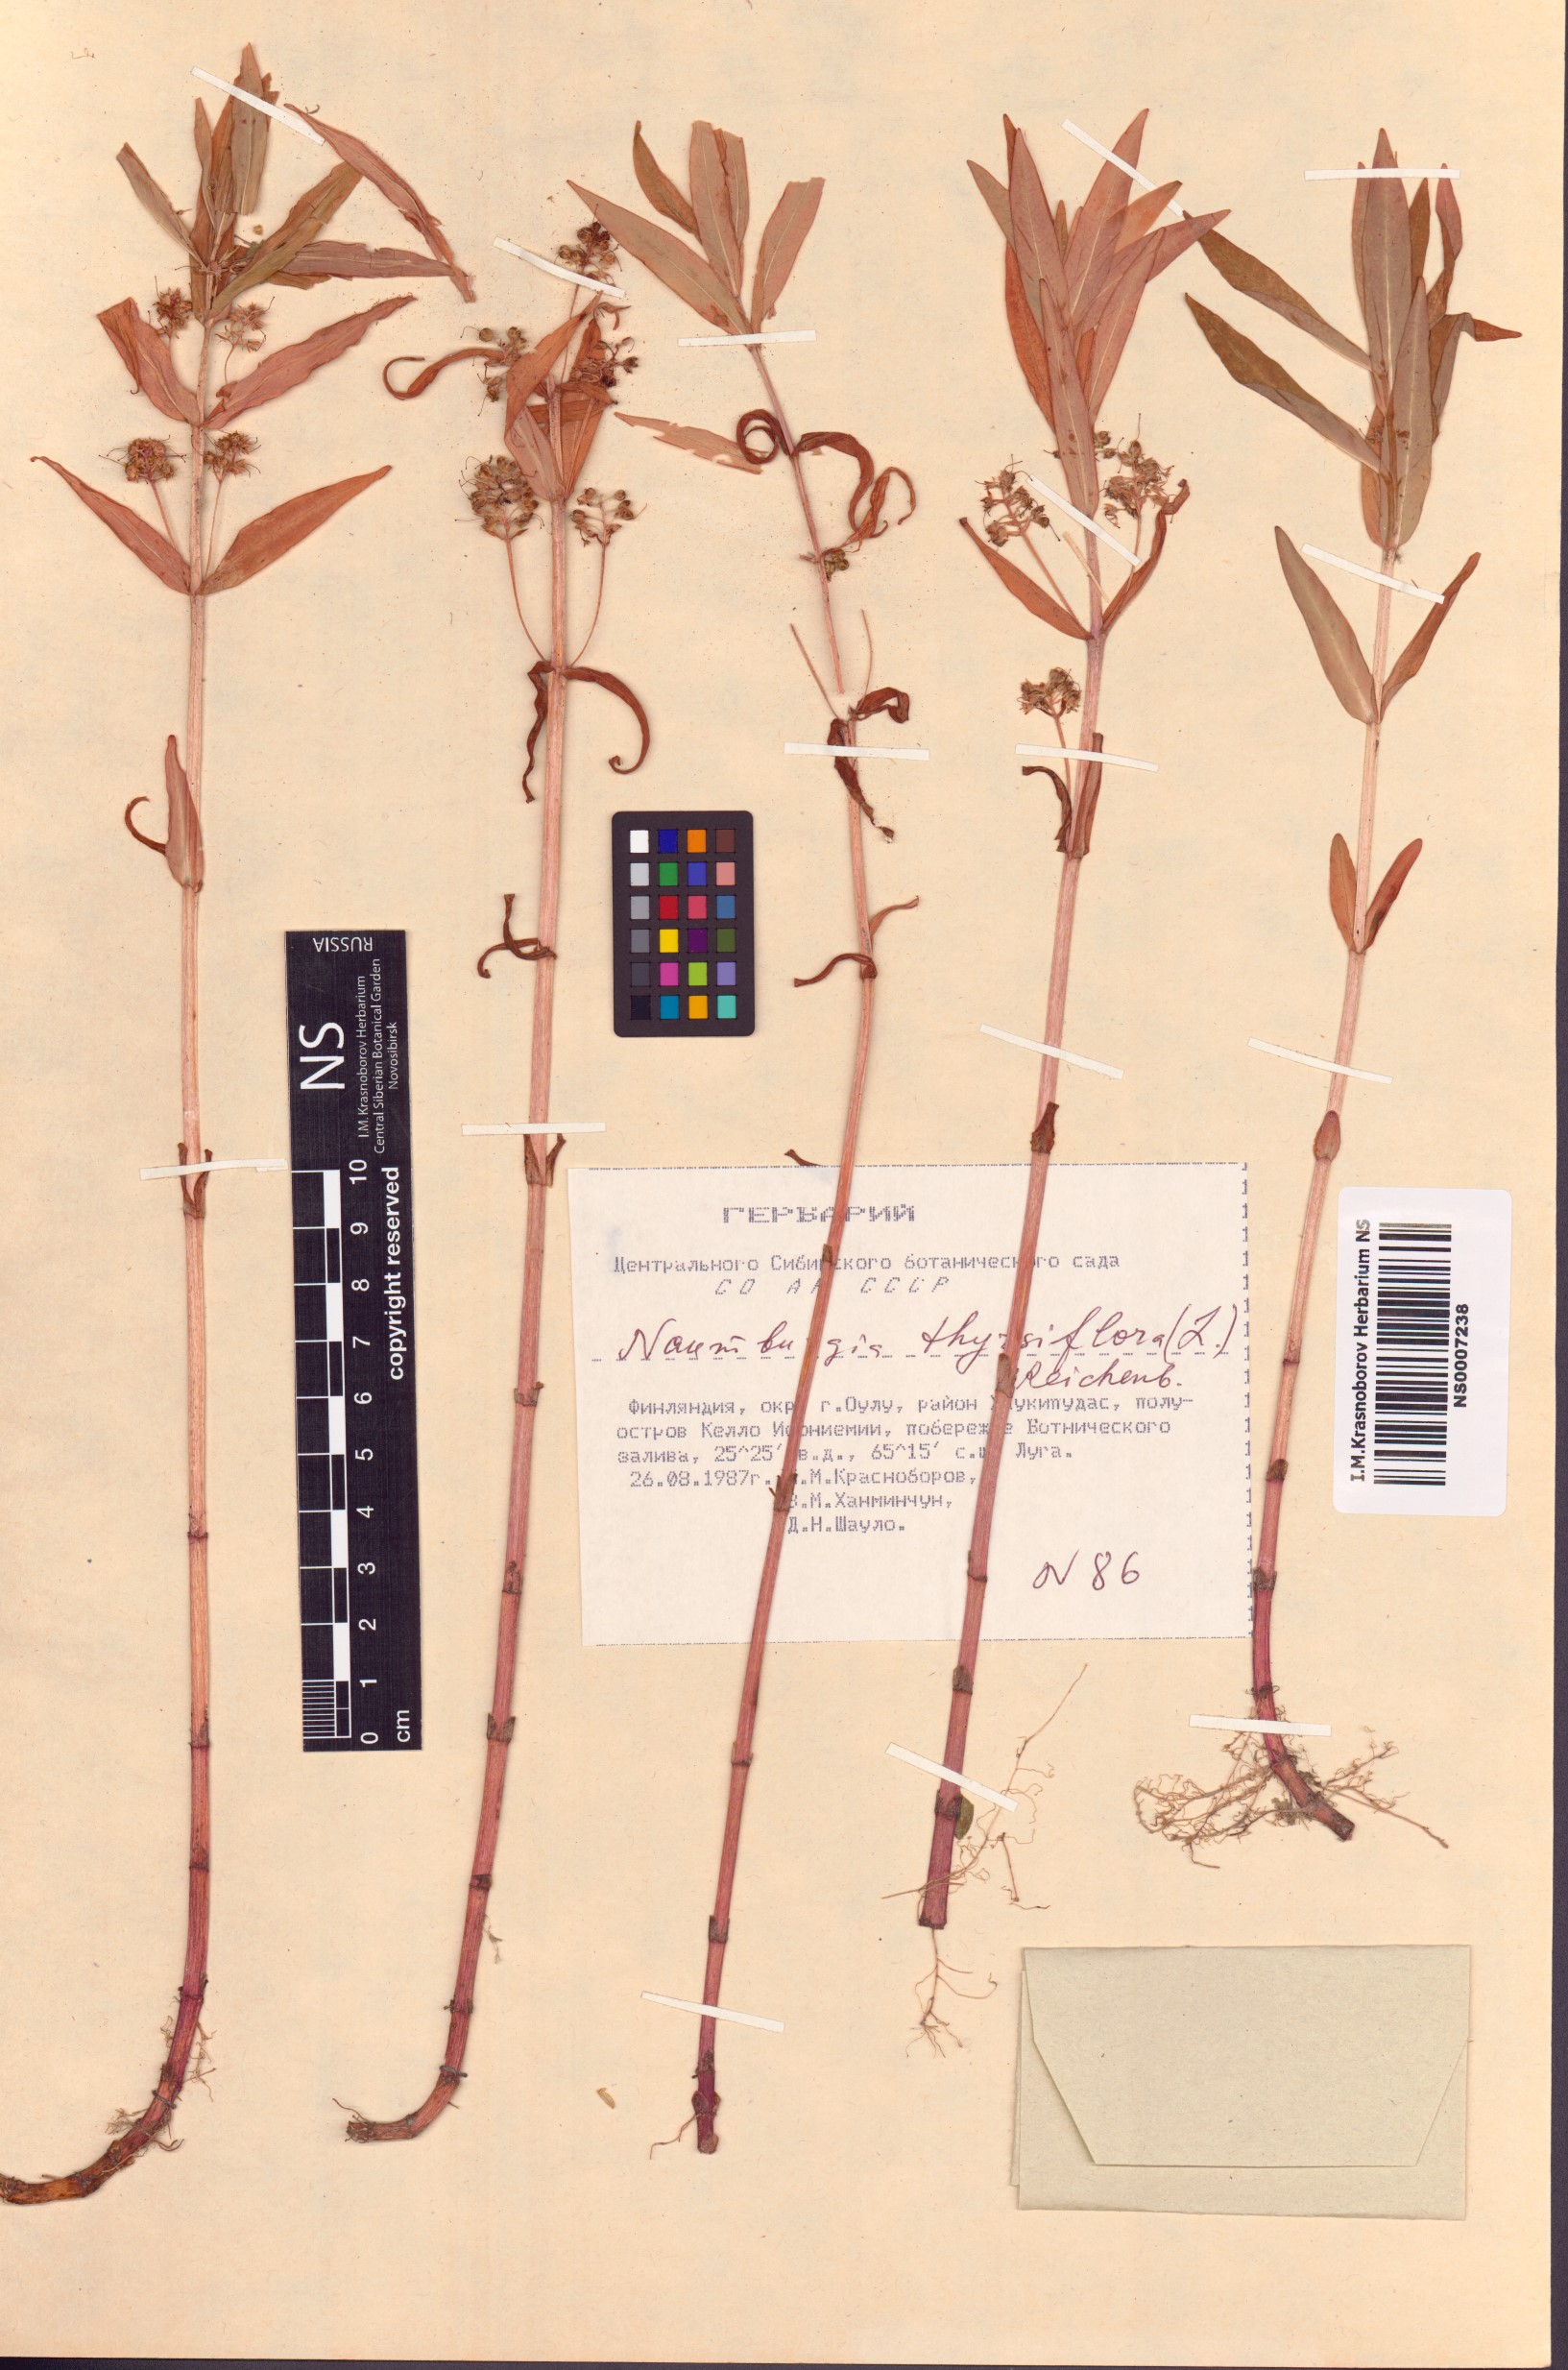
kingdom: Plantae
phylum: Tracheophyta
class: Magnoliopsida
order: Ericales
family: Primulaceae
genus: Lysimachia
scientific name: Lysimachia thyrsiflora
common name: Tufted loosestrife
